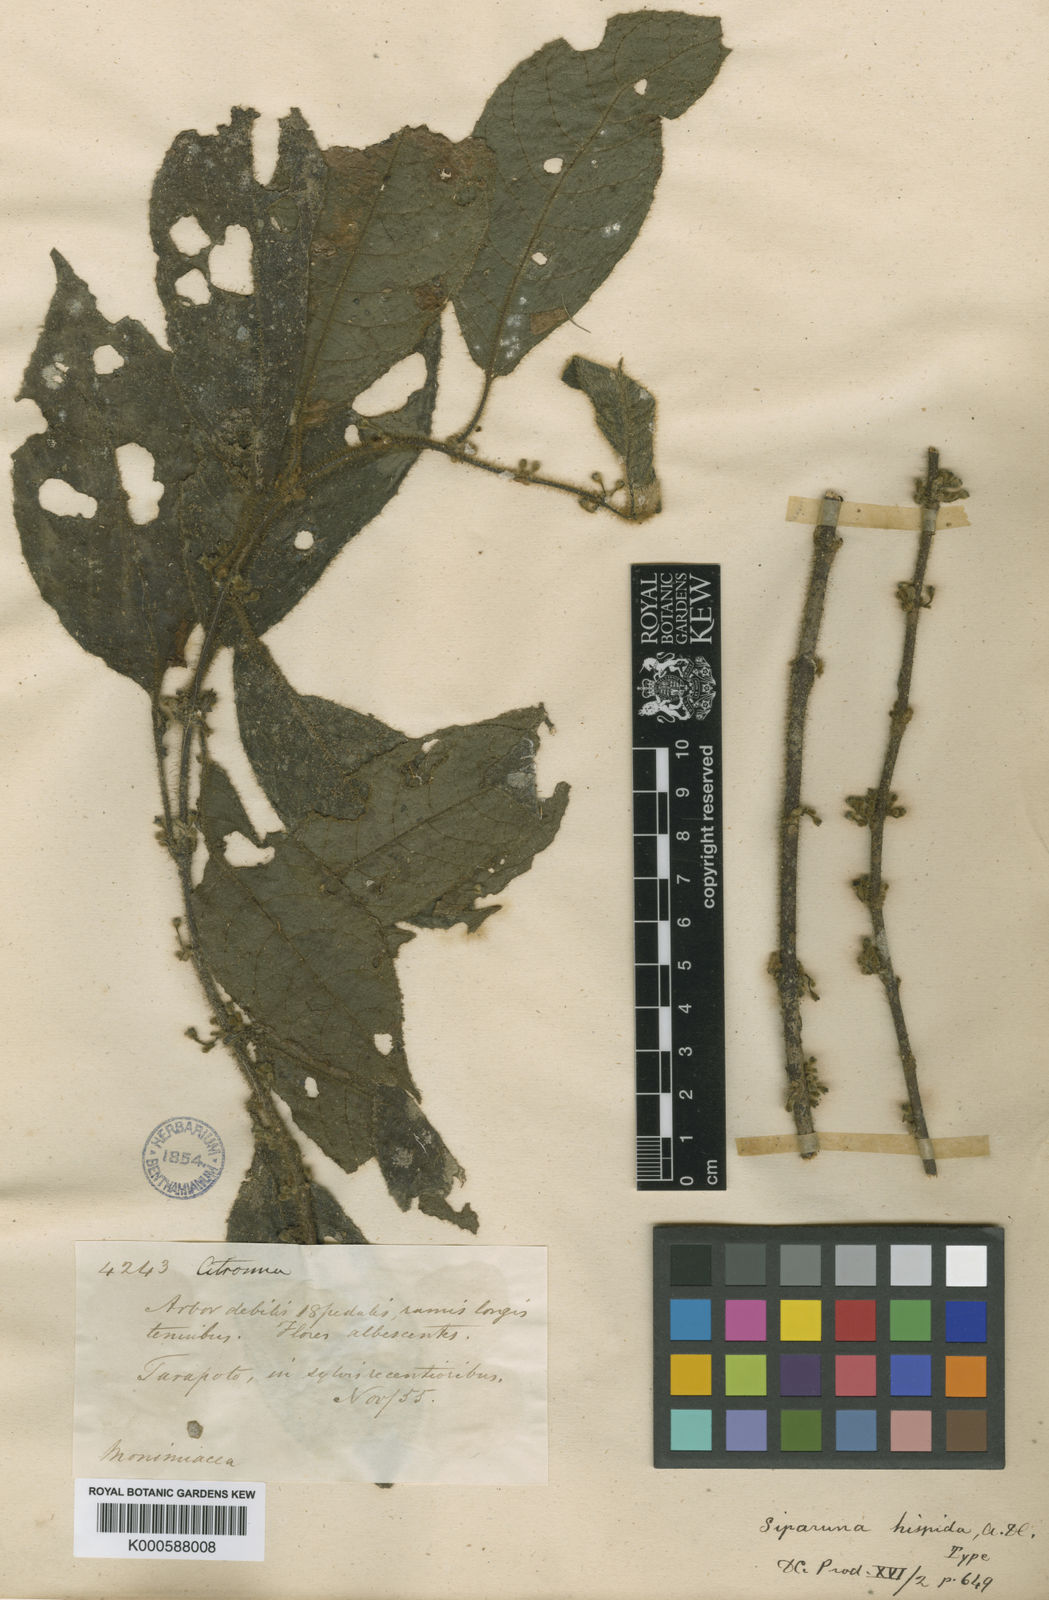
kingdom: Plantae
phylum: Tracheophyta
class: Magnoliopsida
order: Laurales
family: Siparunaceae
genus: Siparuna
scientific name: Siparuna grandiflora
